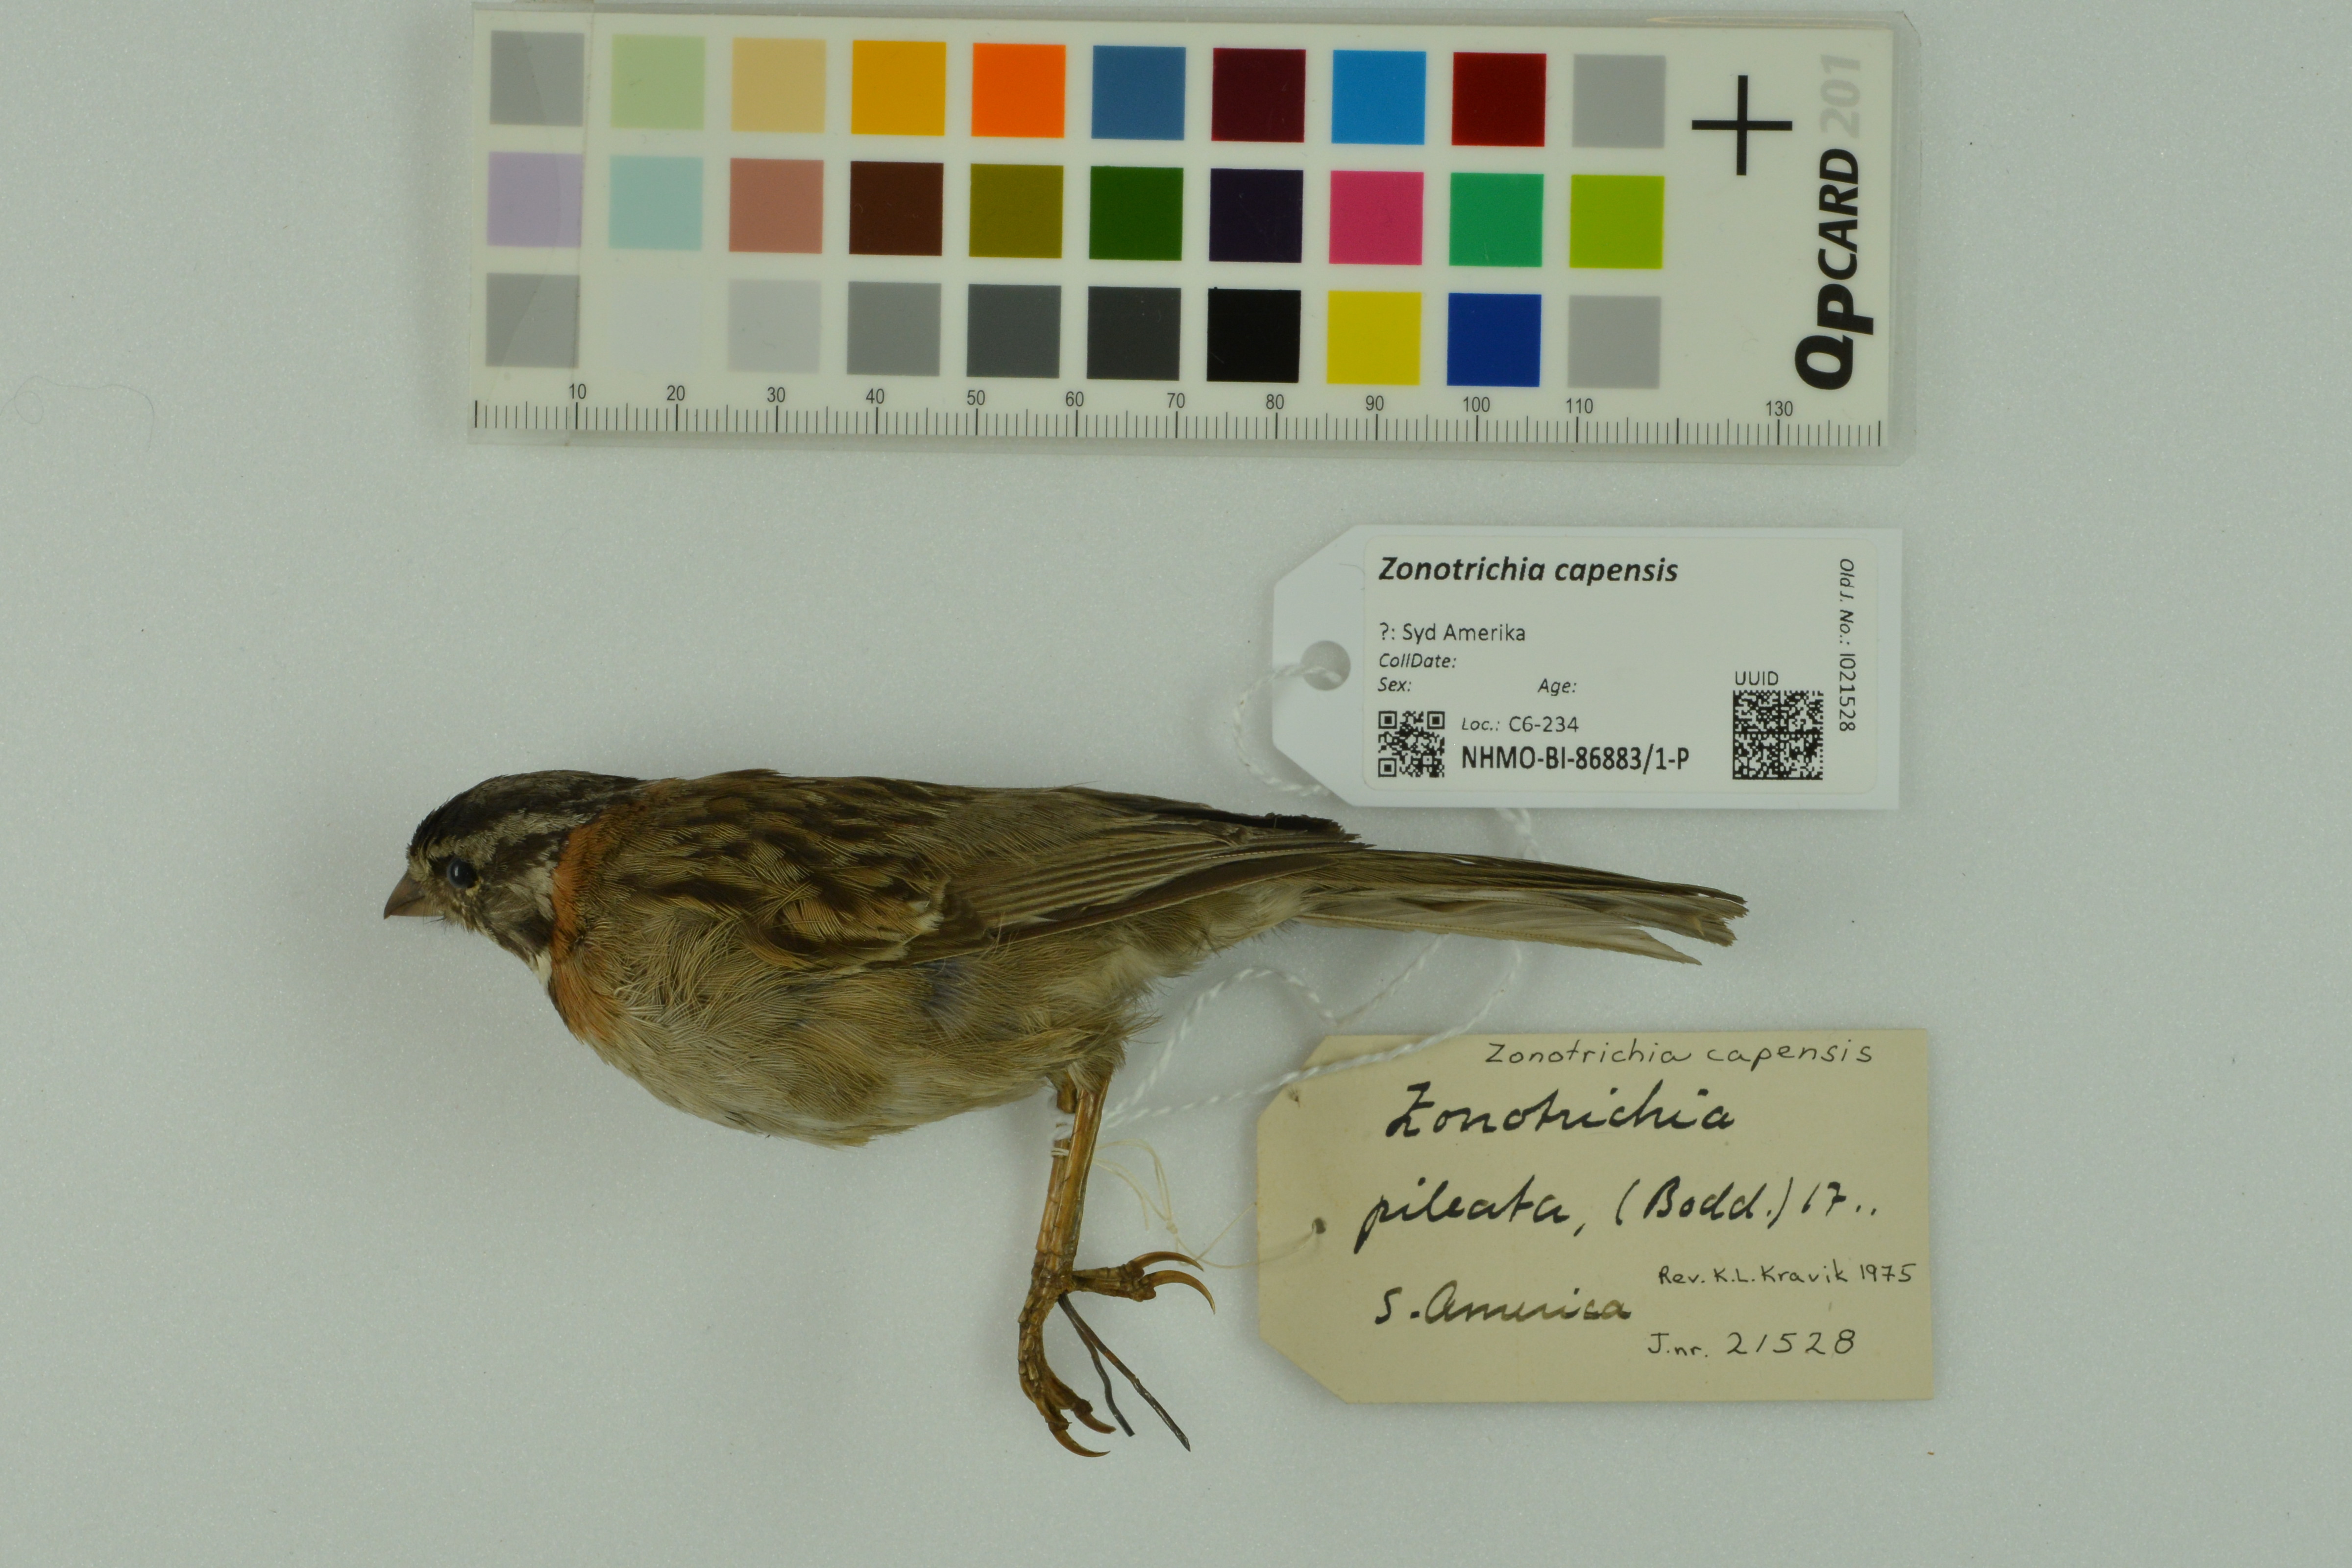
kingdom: Animalia
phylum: Chordata
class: Aves
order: Passeriformes
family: Passerellidae
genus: Zonotrichia
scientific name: Zonotrichia capensis
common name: Rufous-collared sparrow
